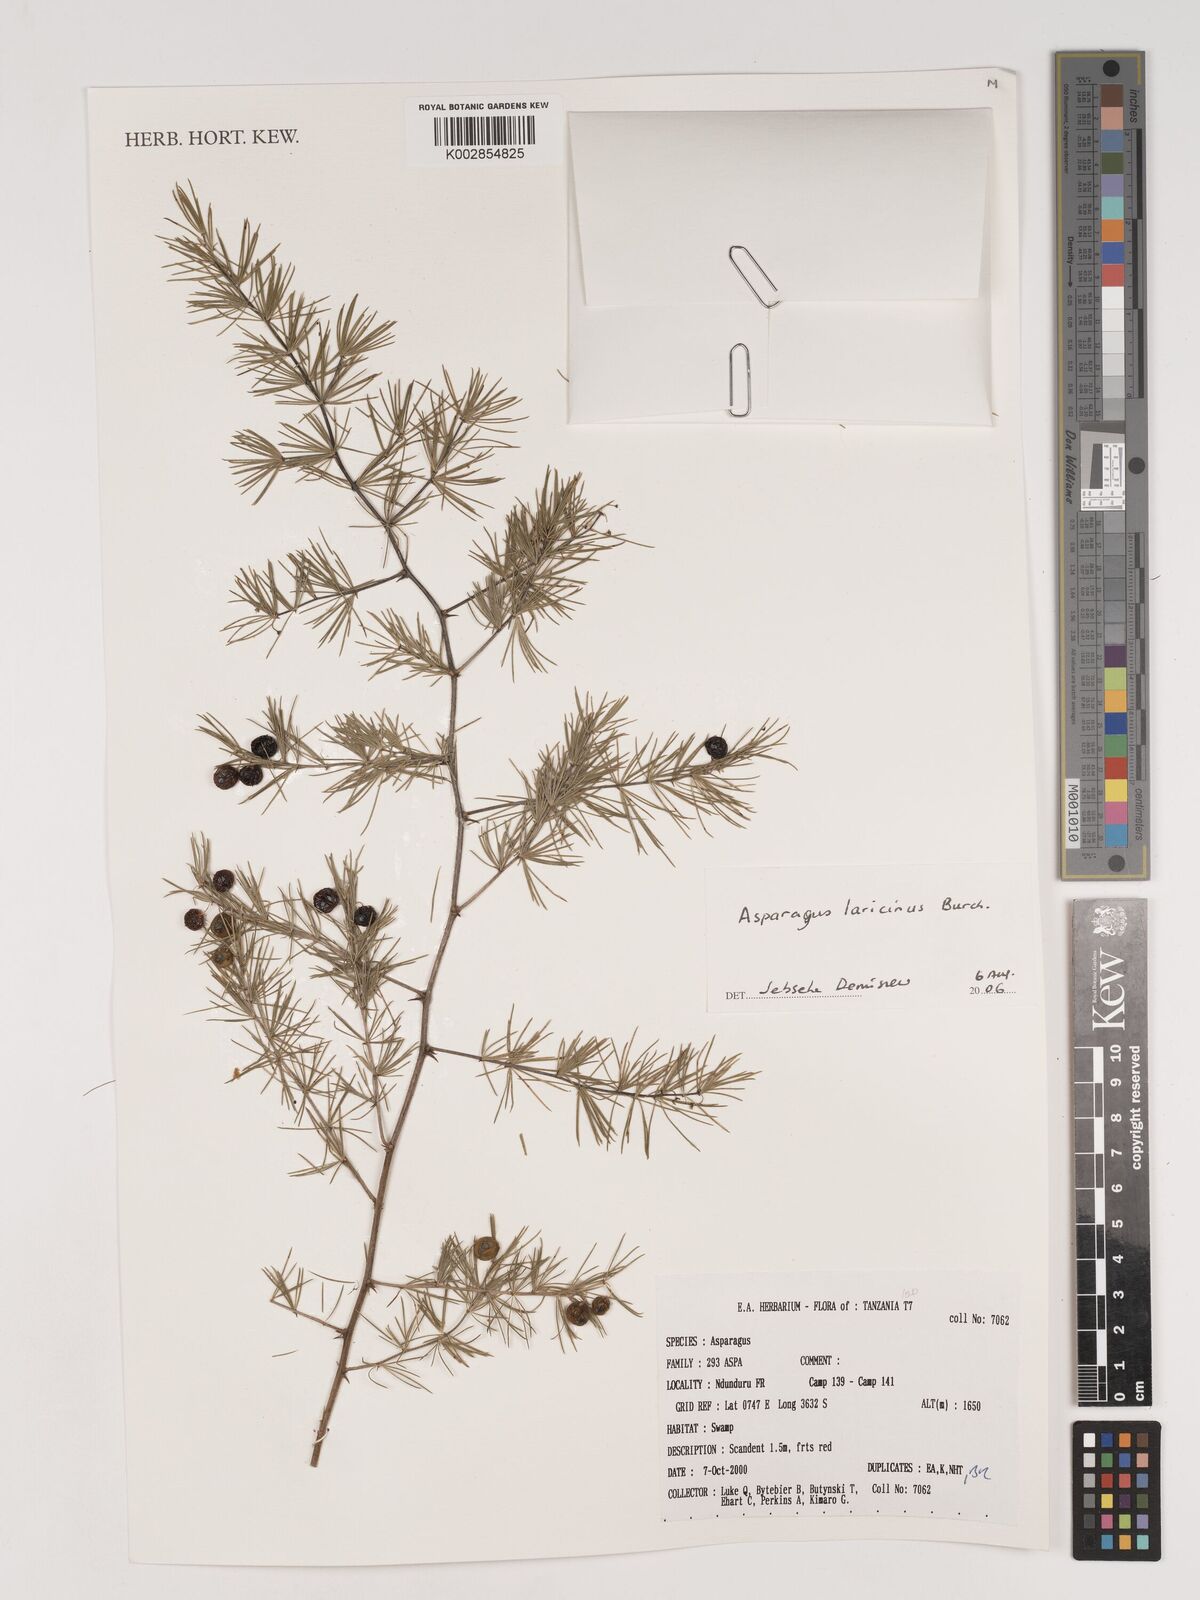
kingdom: Plantae
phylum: Tracheophyta
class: Liliopsida
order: Asparagales
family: Asparagaceae
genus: Asparagus
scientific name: Asparagus laricinus
